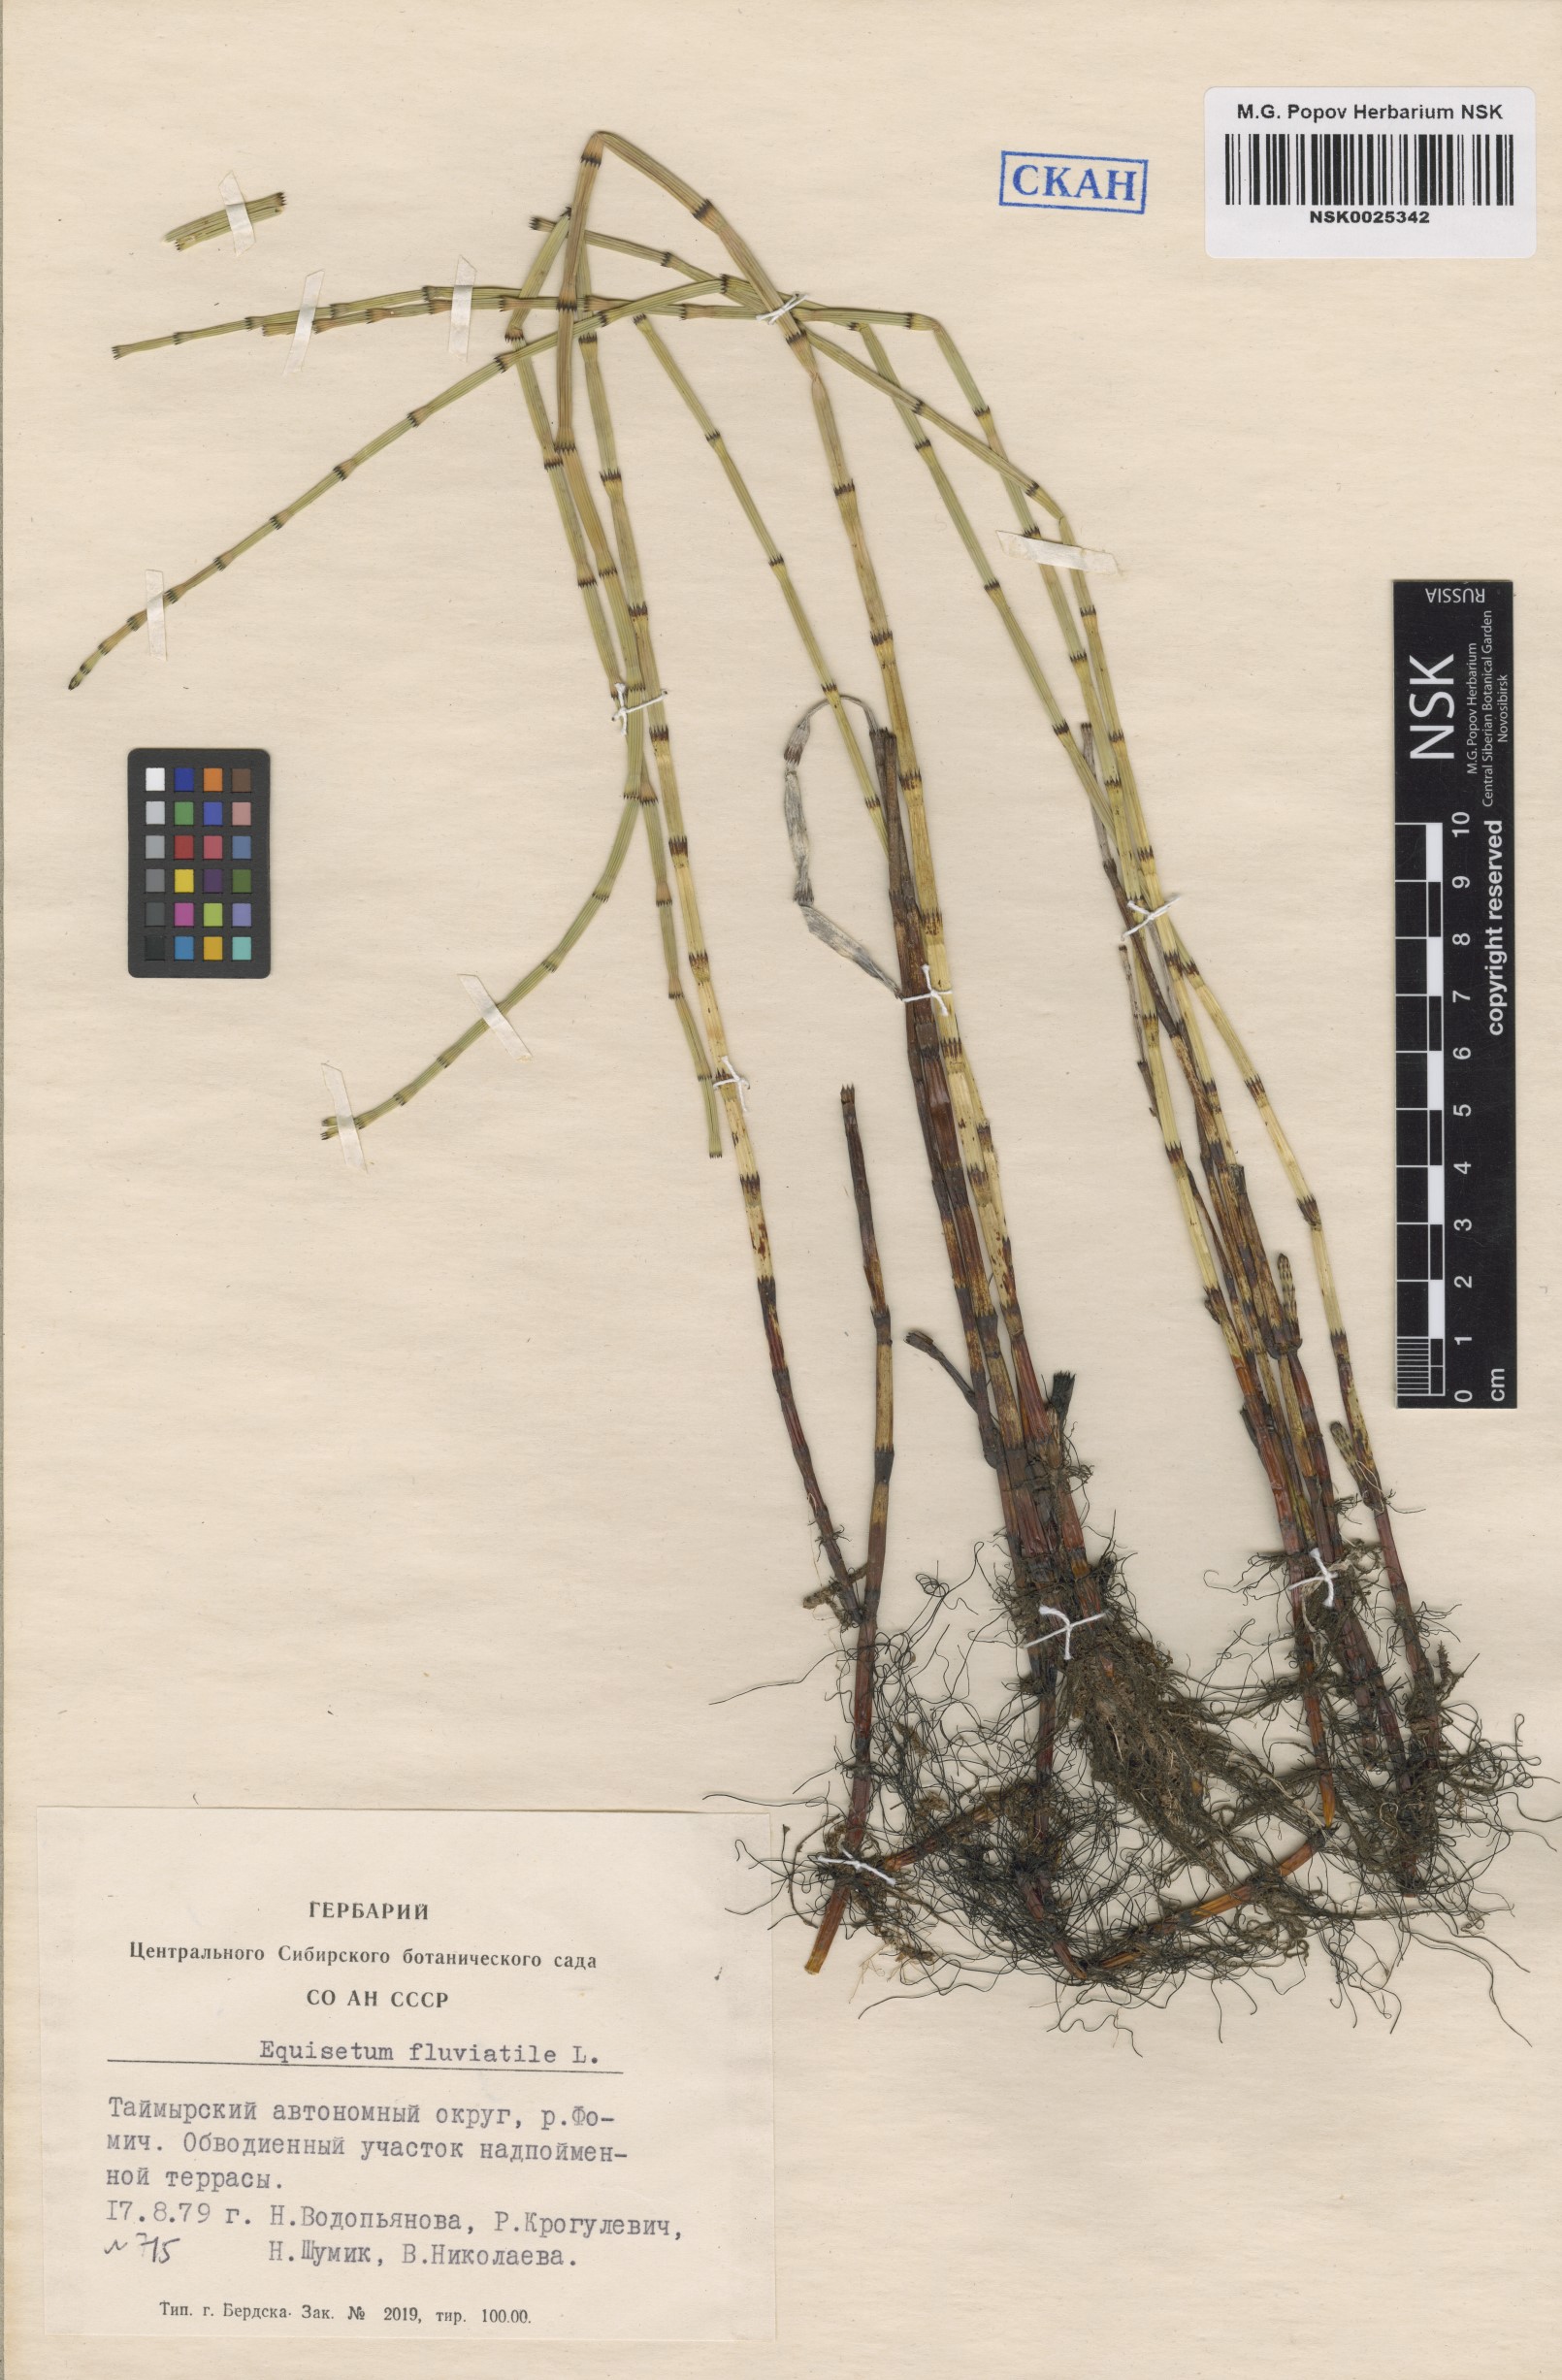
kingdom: Plantae
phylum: Tracheophyta
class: Polypodiopsida
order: Equisetales
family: Equisetaceae
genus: Equisetum
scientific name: Equisetum fluviatile
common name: Water horsetail
